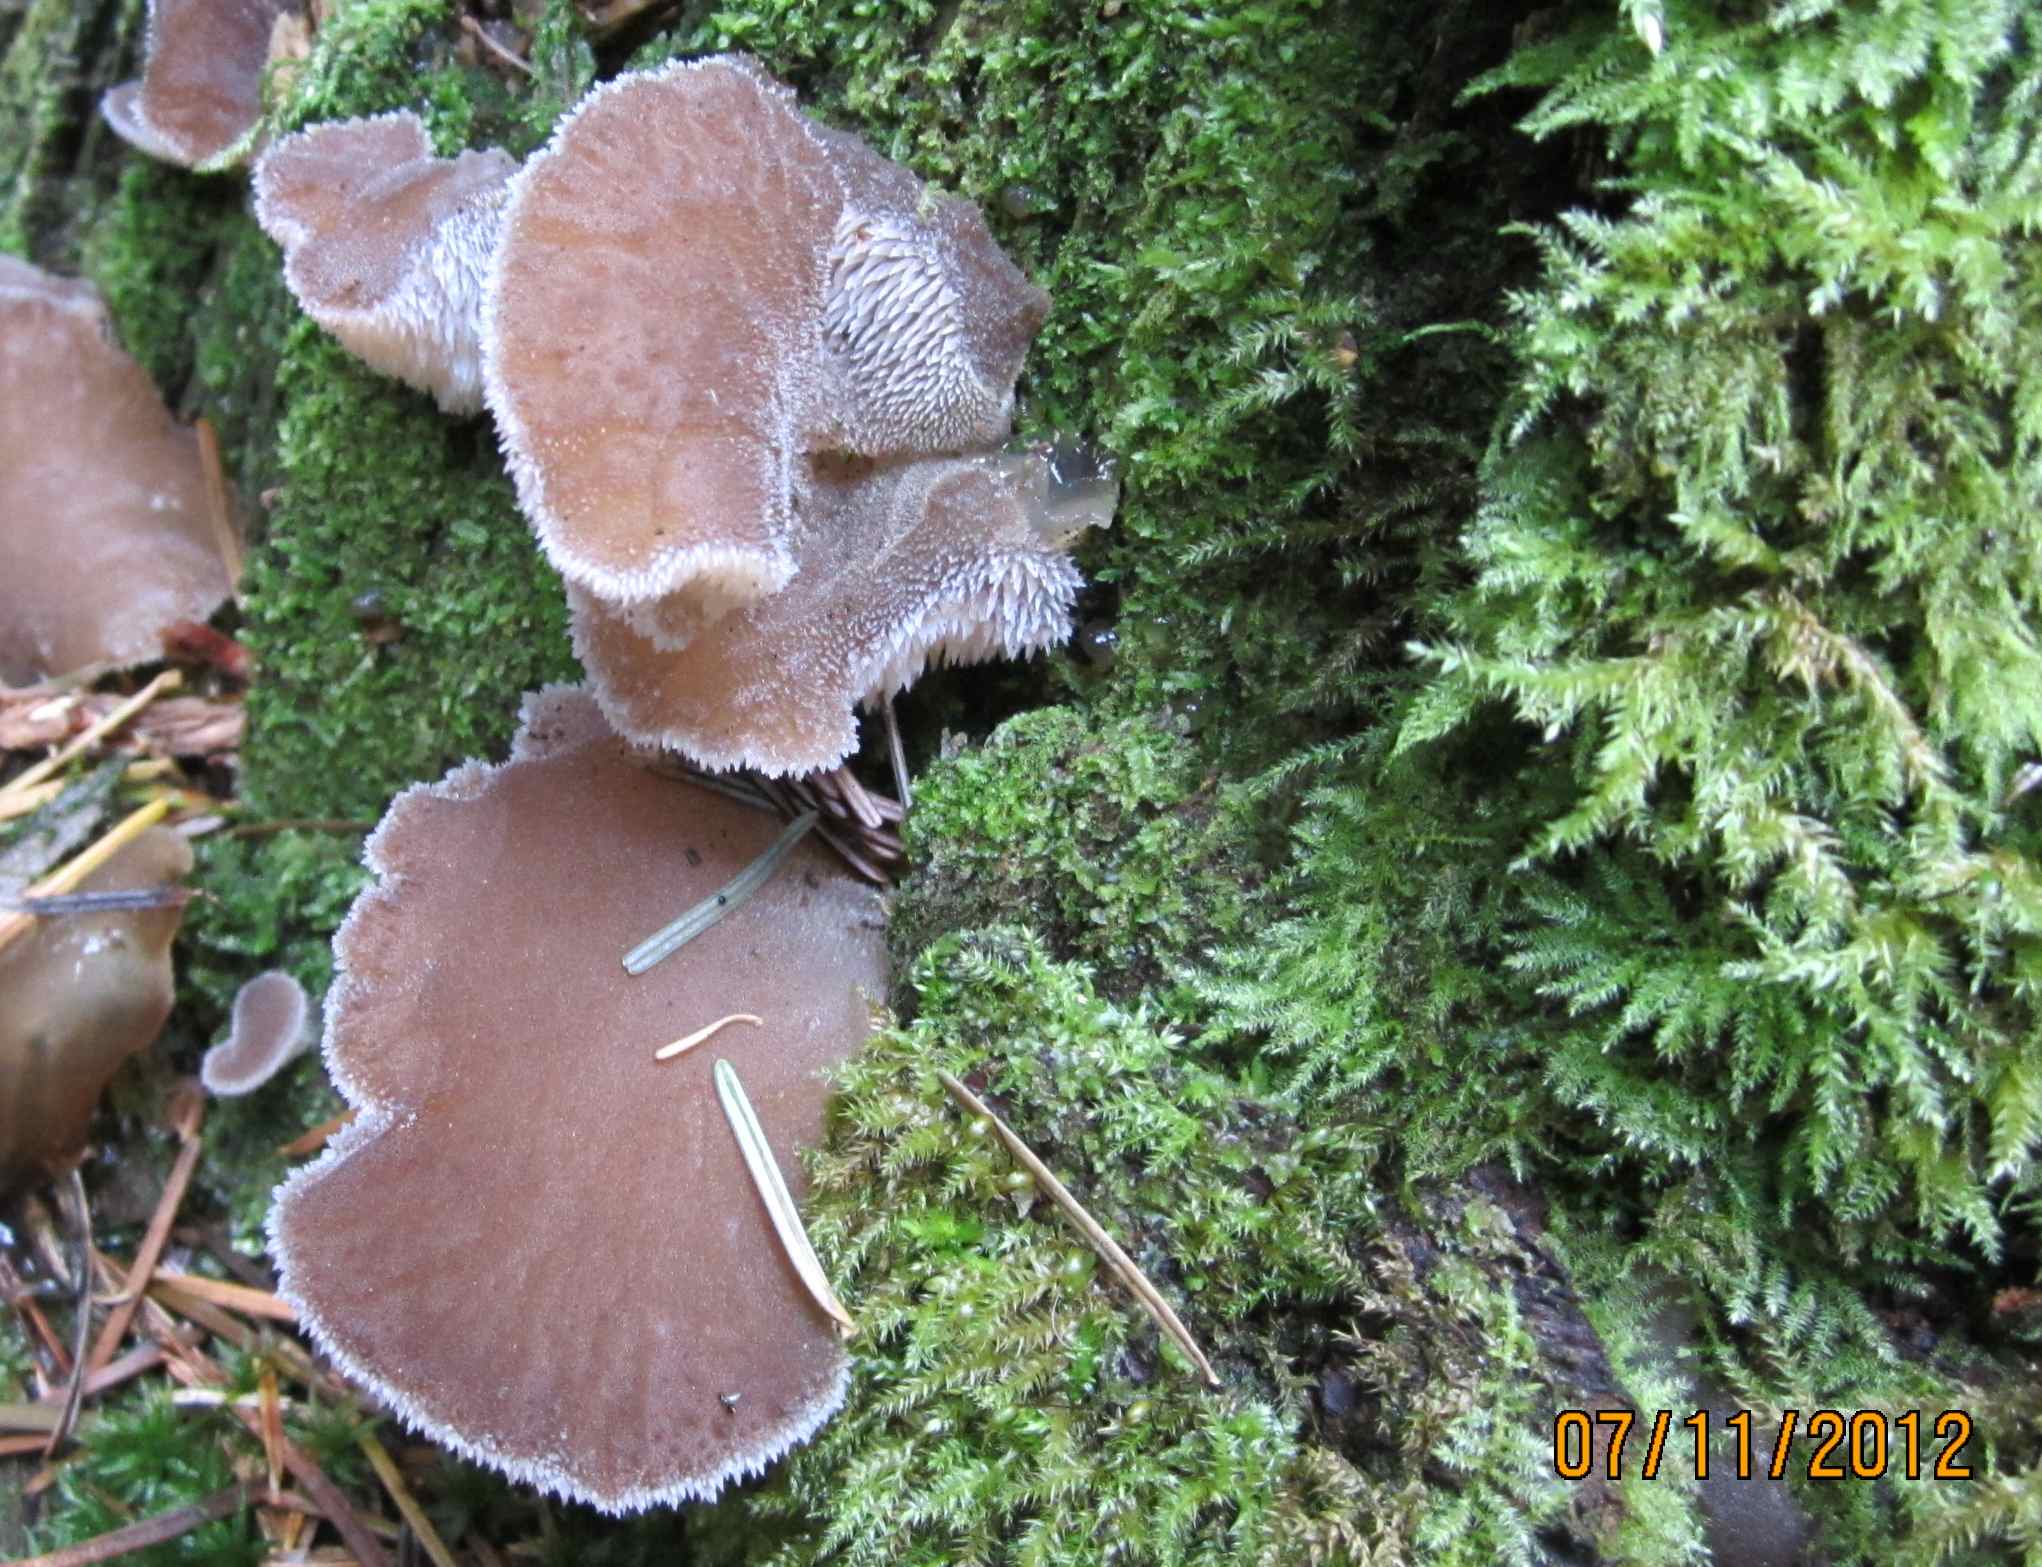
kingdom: Fungi
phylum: Basidiomycota
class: Agaricomycetes
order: Auriculariales
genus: Pseudohydnum
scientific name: Pseudohydnum gelatinosum
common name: bævretand
